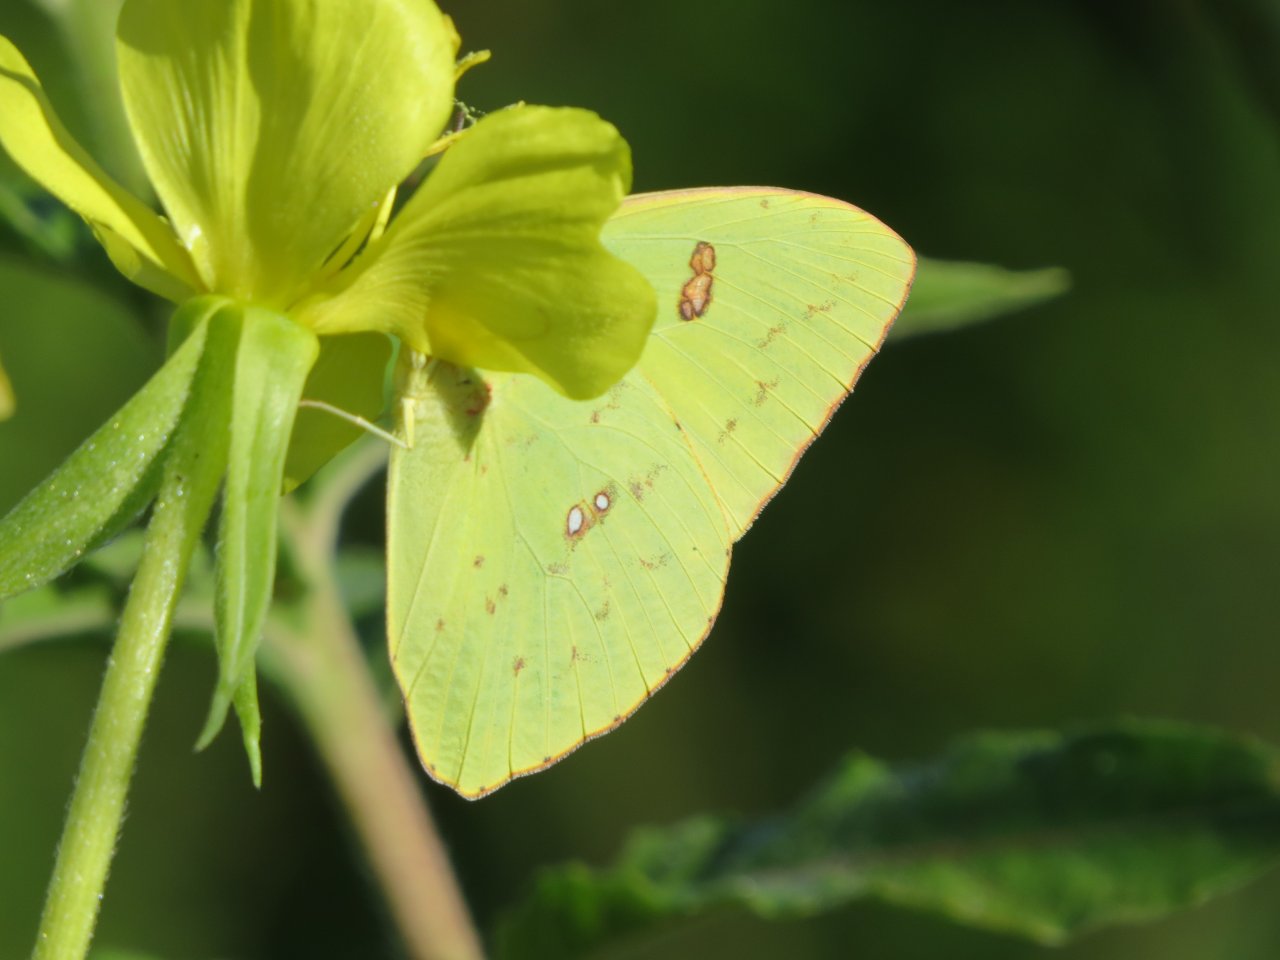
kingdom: Animalia
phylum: Arthropoda
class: Insecta
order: Lepidoptera
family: Pieridae
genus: Phoebis
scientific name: Phoebis sennae
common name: Cloudless Sulphur
